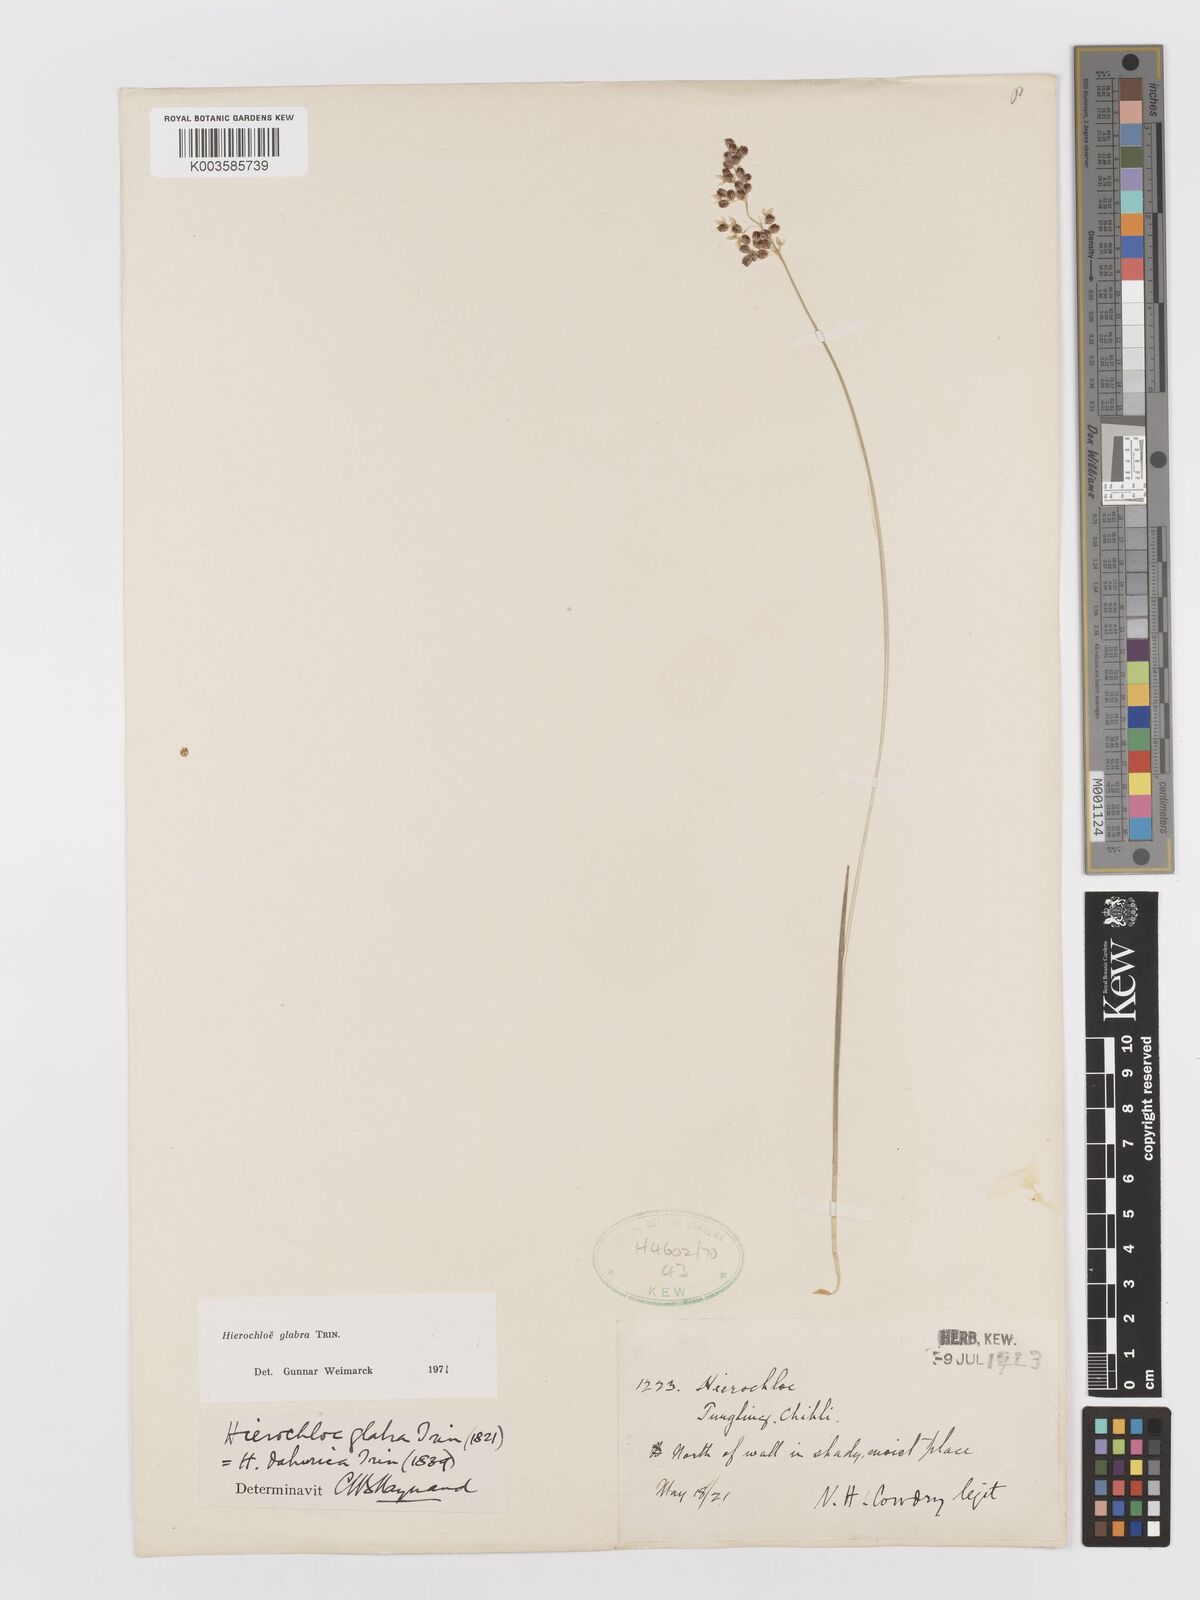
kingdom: Plantae
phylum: Tracheophyta
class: Liliopsida
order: Poales
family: Poaceae
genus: Anthoxanthum
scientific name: Anthoxanthum glabrum
